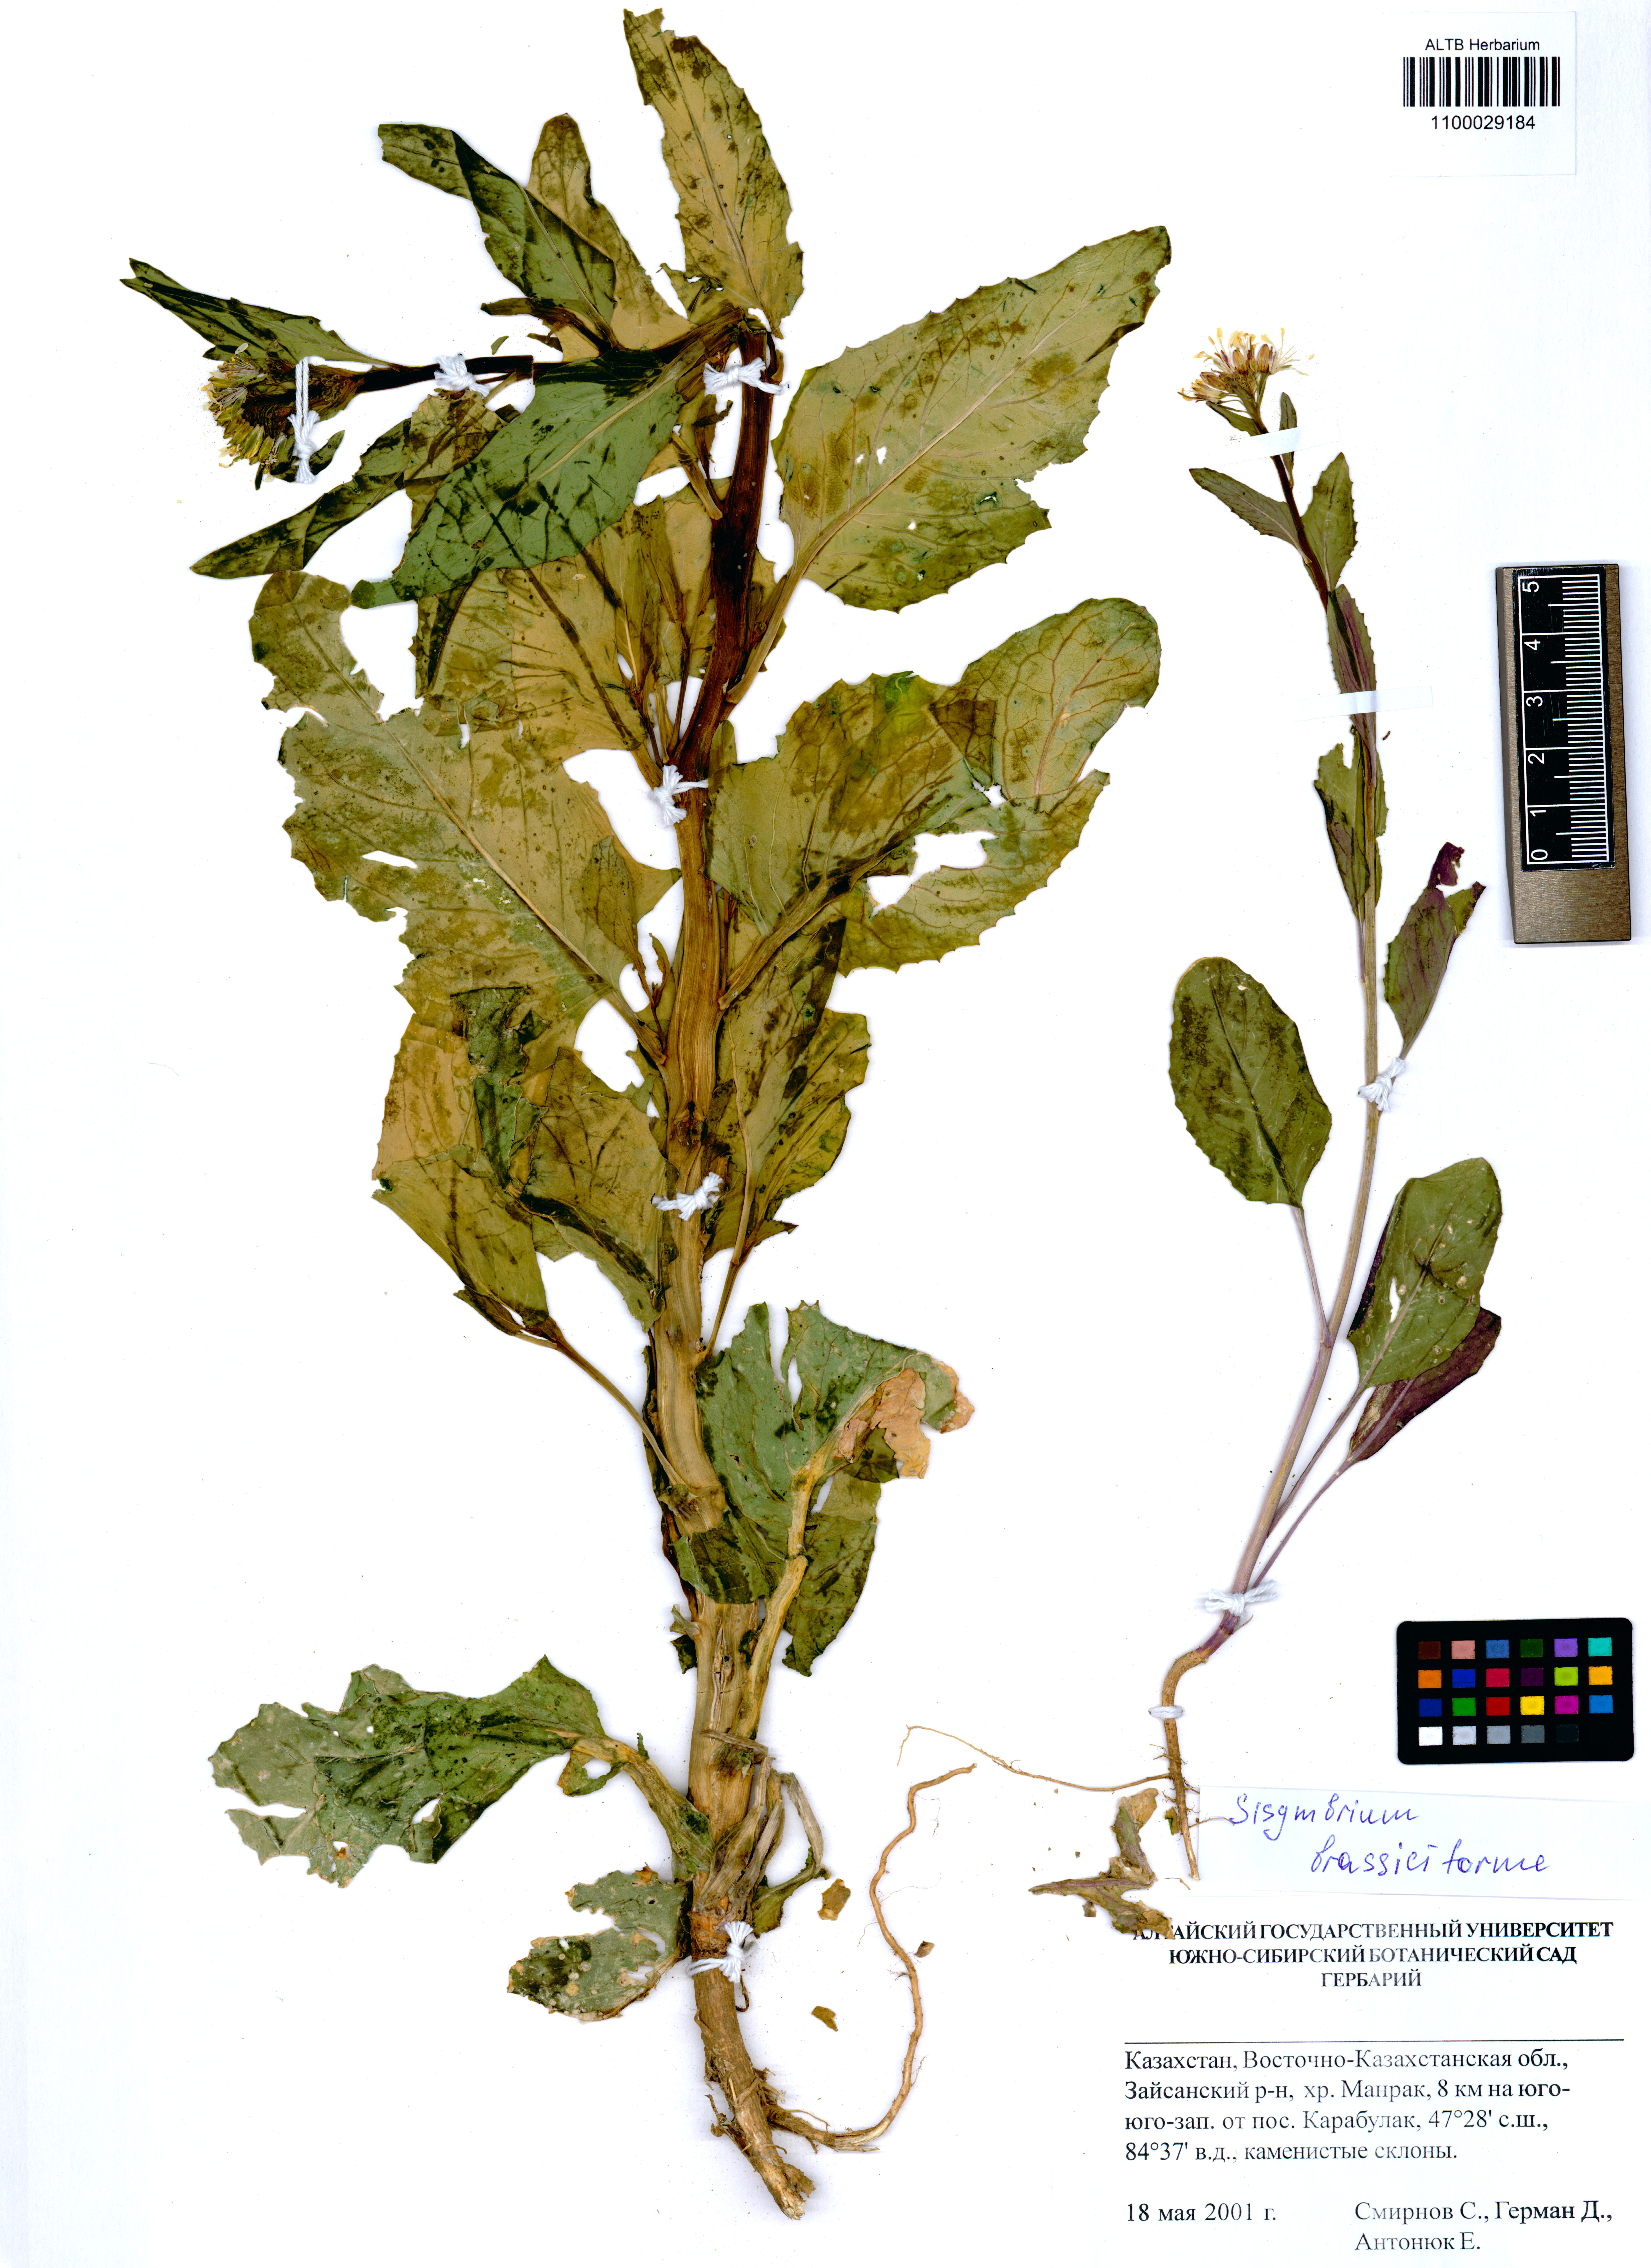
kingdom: Plantae
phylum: Tracheophyta
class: Magnoliopsida
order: Brassicales
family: Brassicaceae
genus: Sisymbrium
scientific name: Sisymbrium brassiciforme
